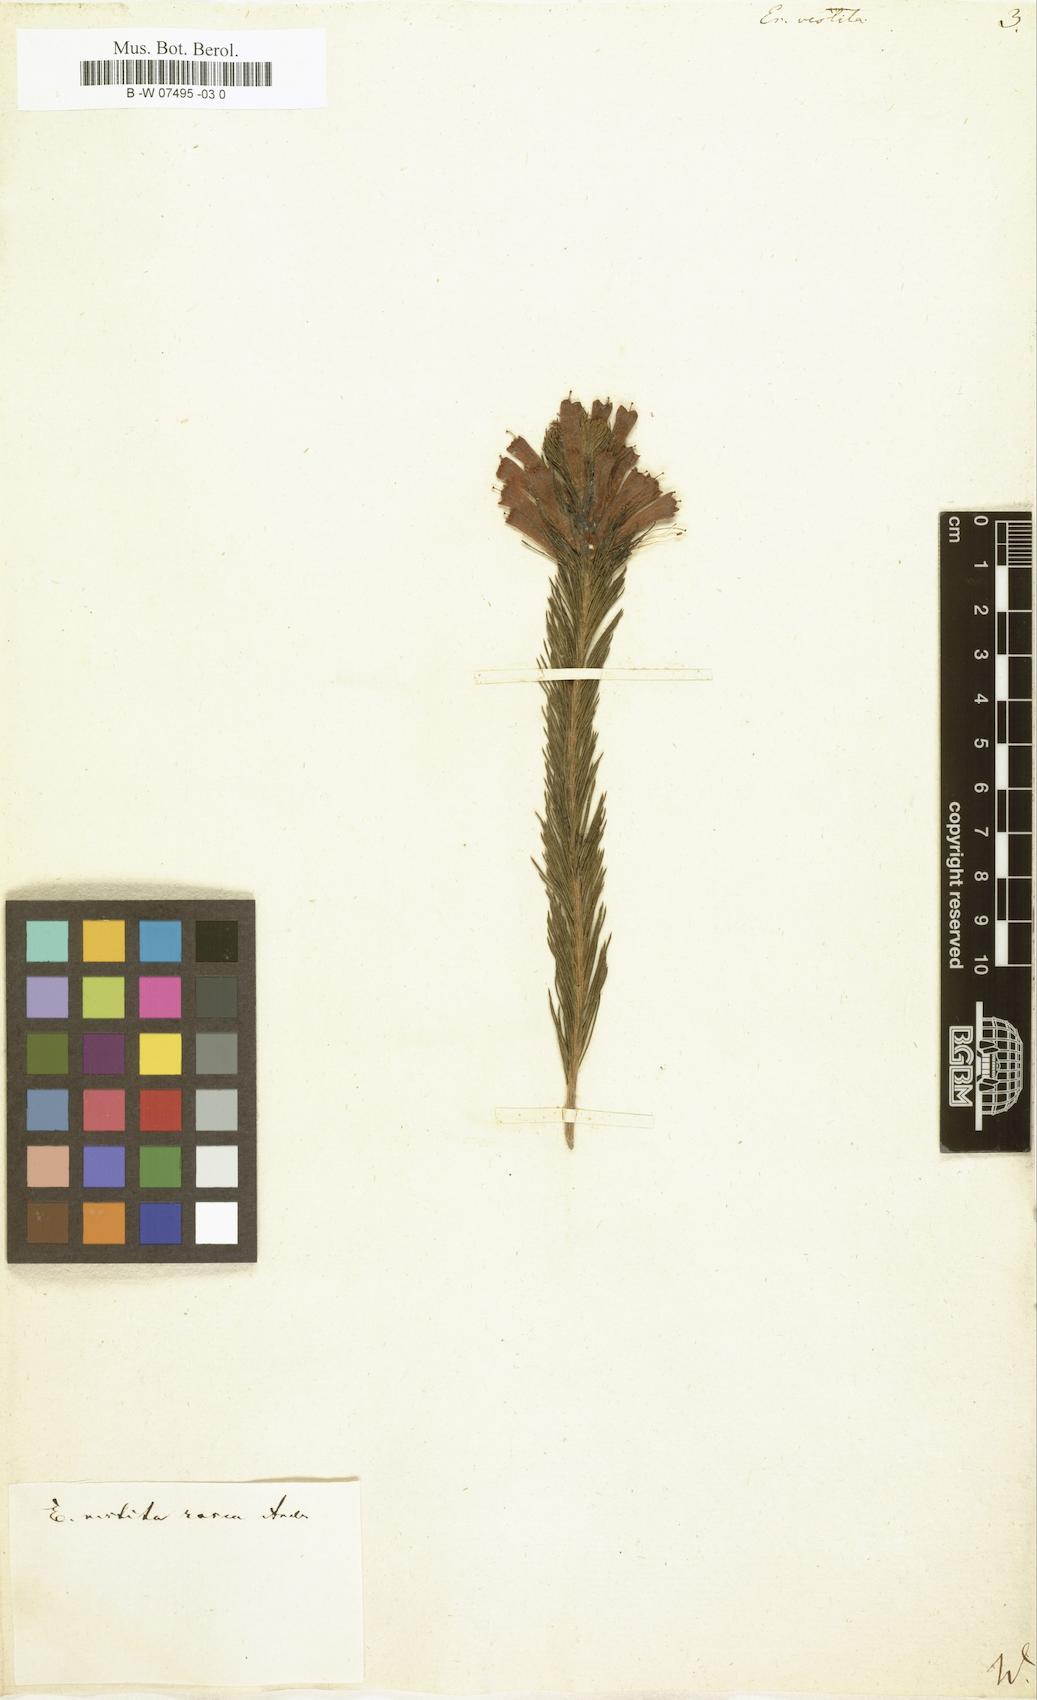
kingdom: Plantae
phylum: Tracheophyta
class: Magnoliopsida
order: Ericales
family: Ericaceae
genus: Erica
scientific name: Erica vestita
